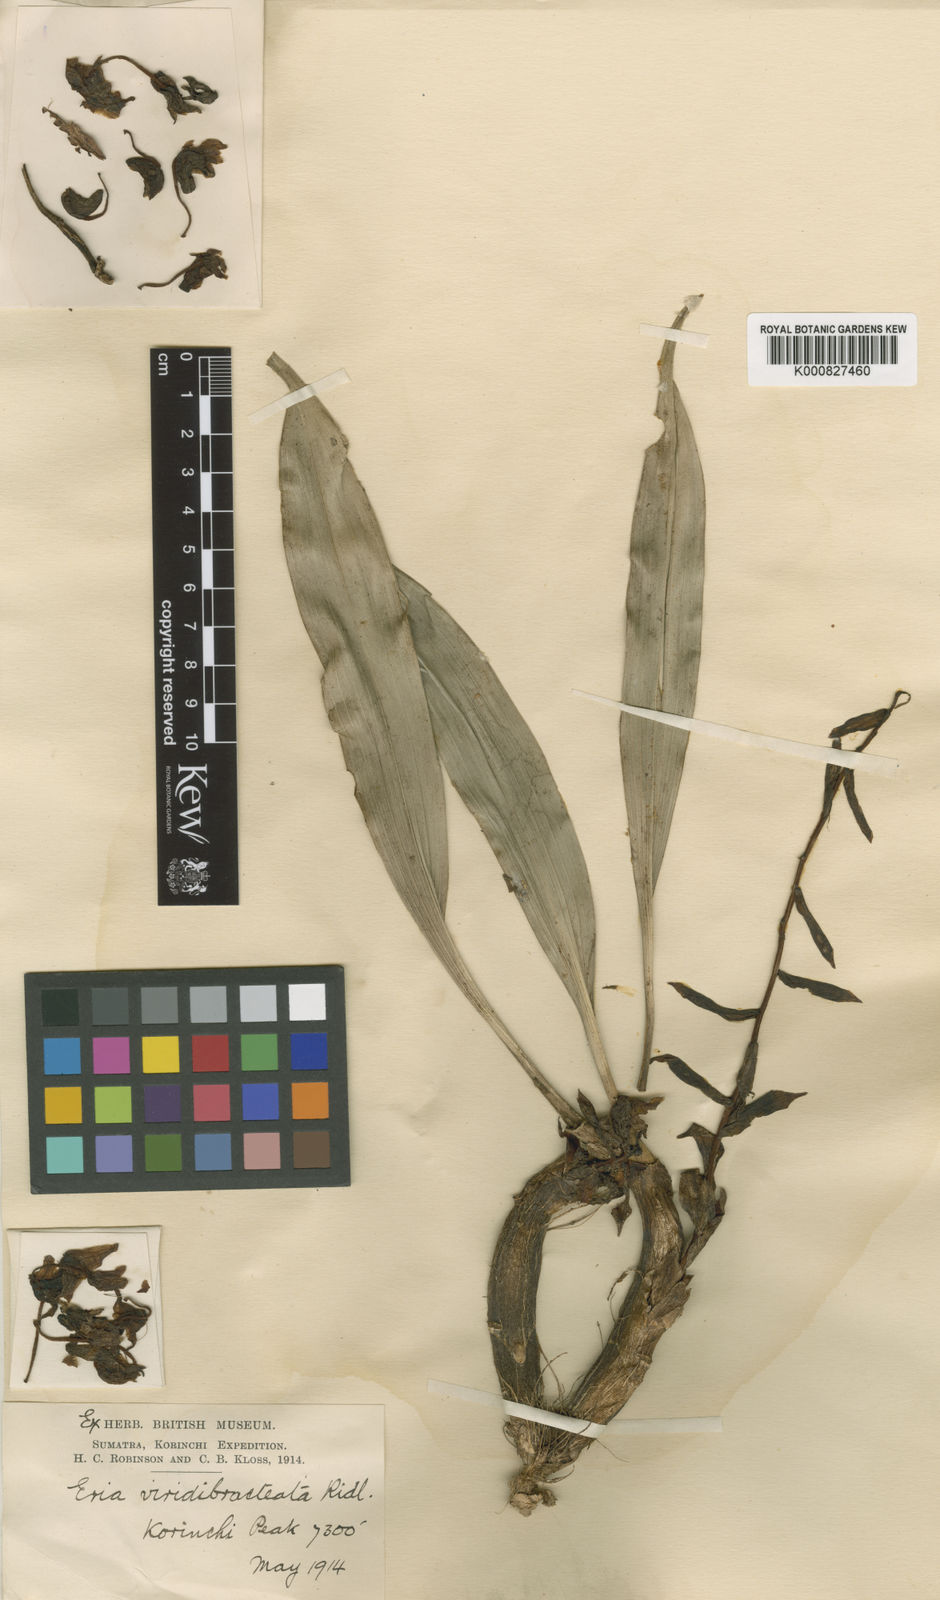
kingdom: Plantae
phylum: Tracheophyta
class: Liliopsida
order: Asparagales
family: Orchidaceae
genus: Pinalia
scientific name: Pinalia
